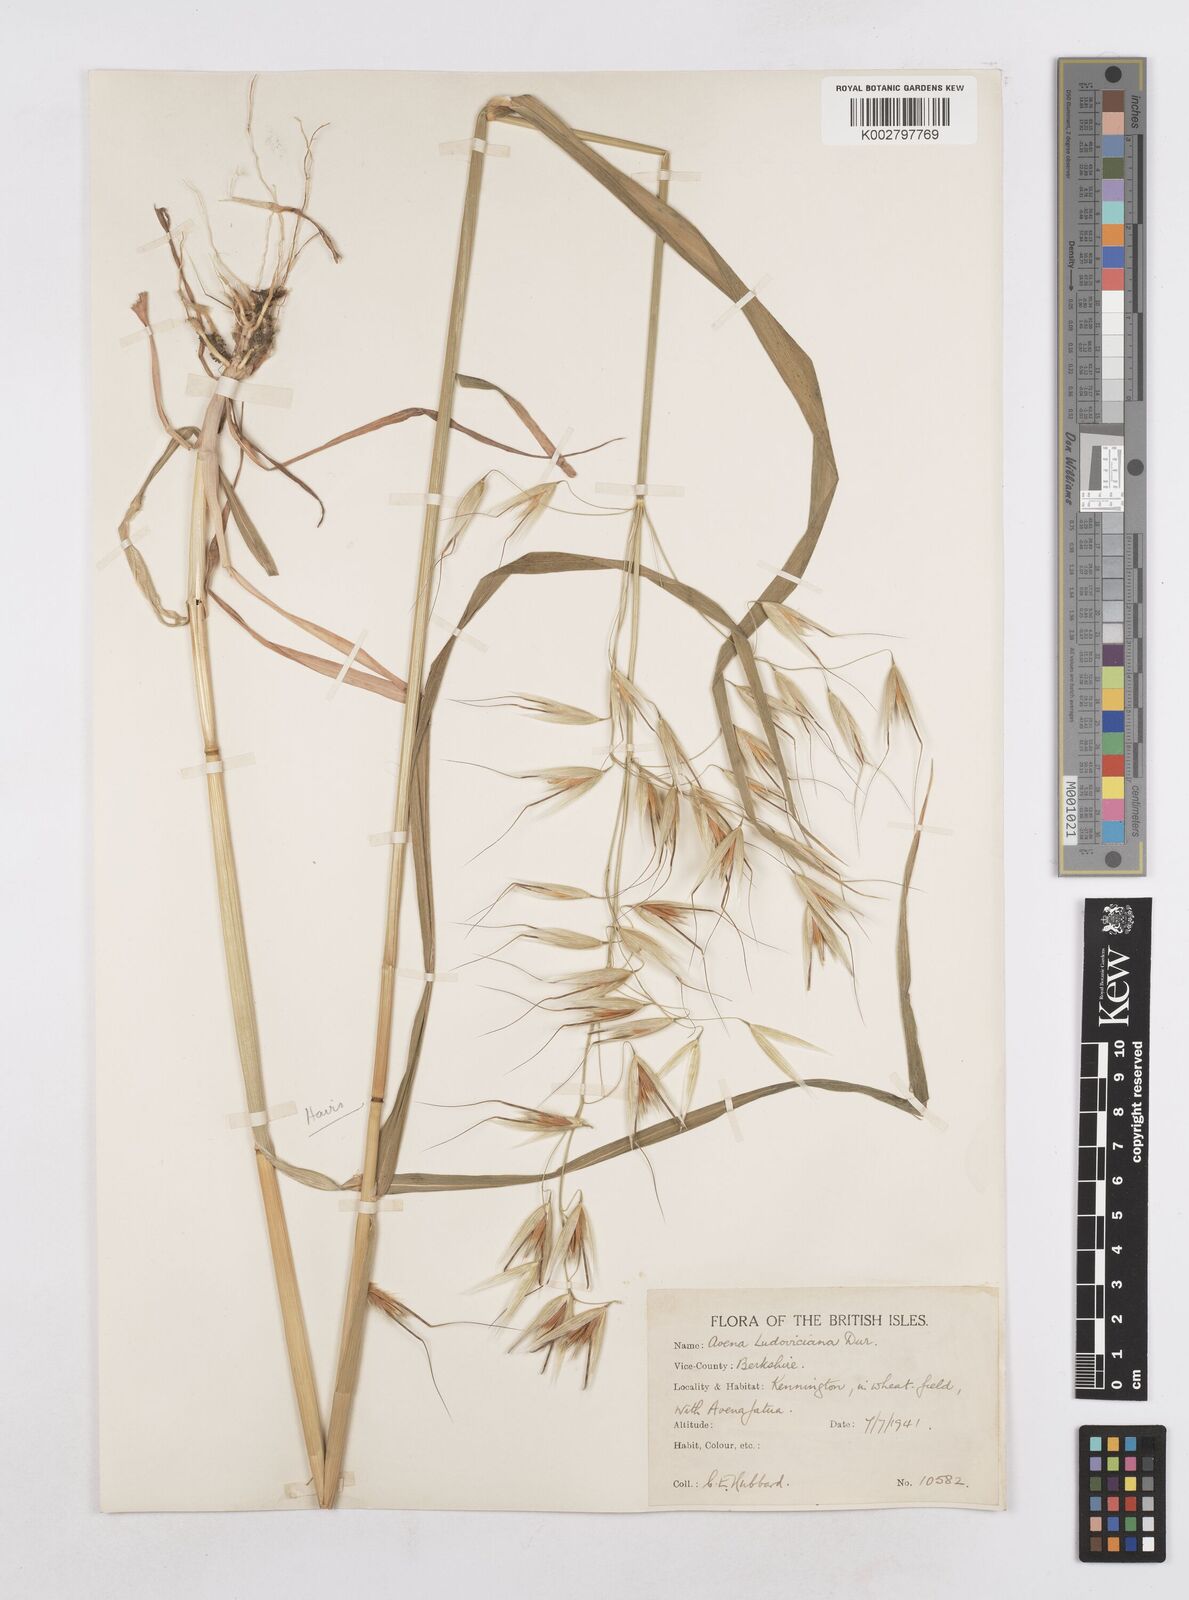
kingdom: Plantae
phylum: Tracheophyta
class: Liliopsida
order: Poales
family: Poaceae
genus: Avena
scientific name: Avena sterilis
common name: Animated oat
